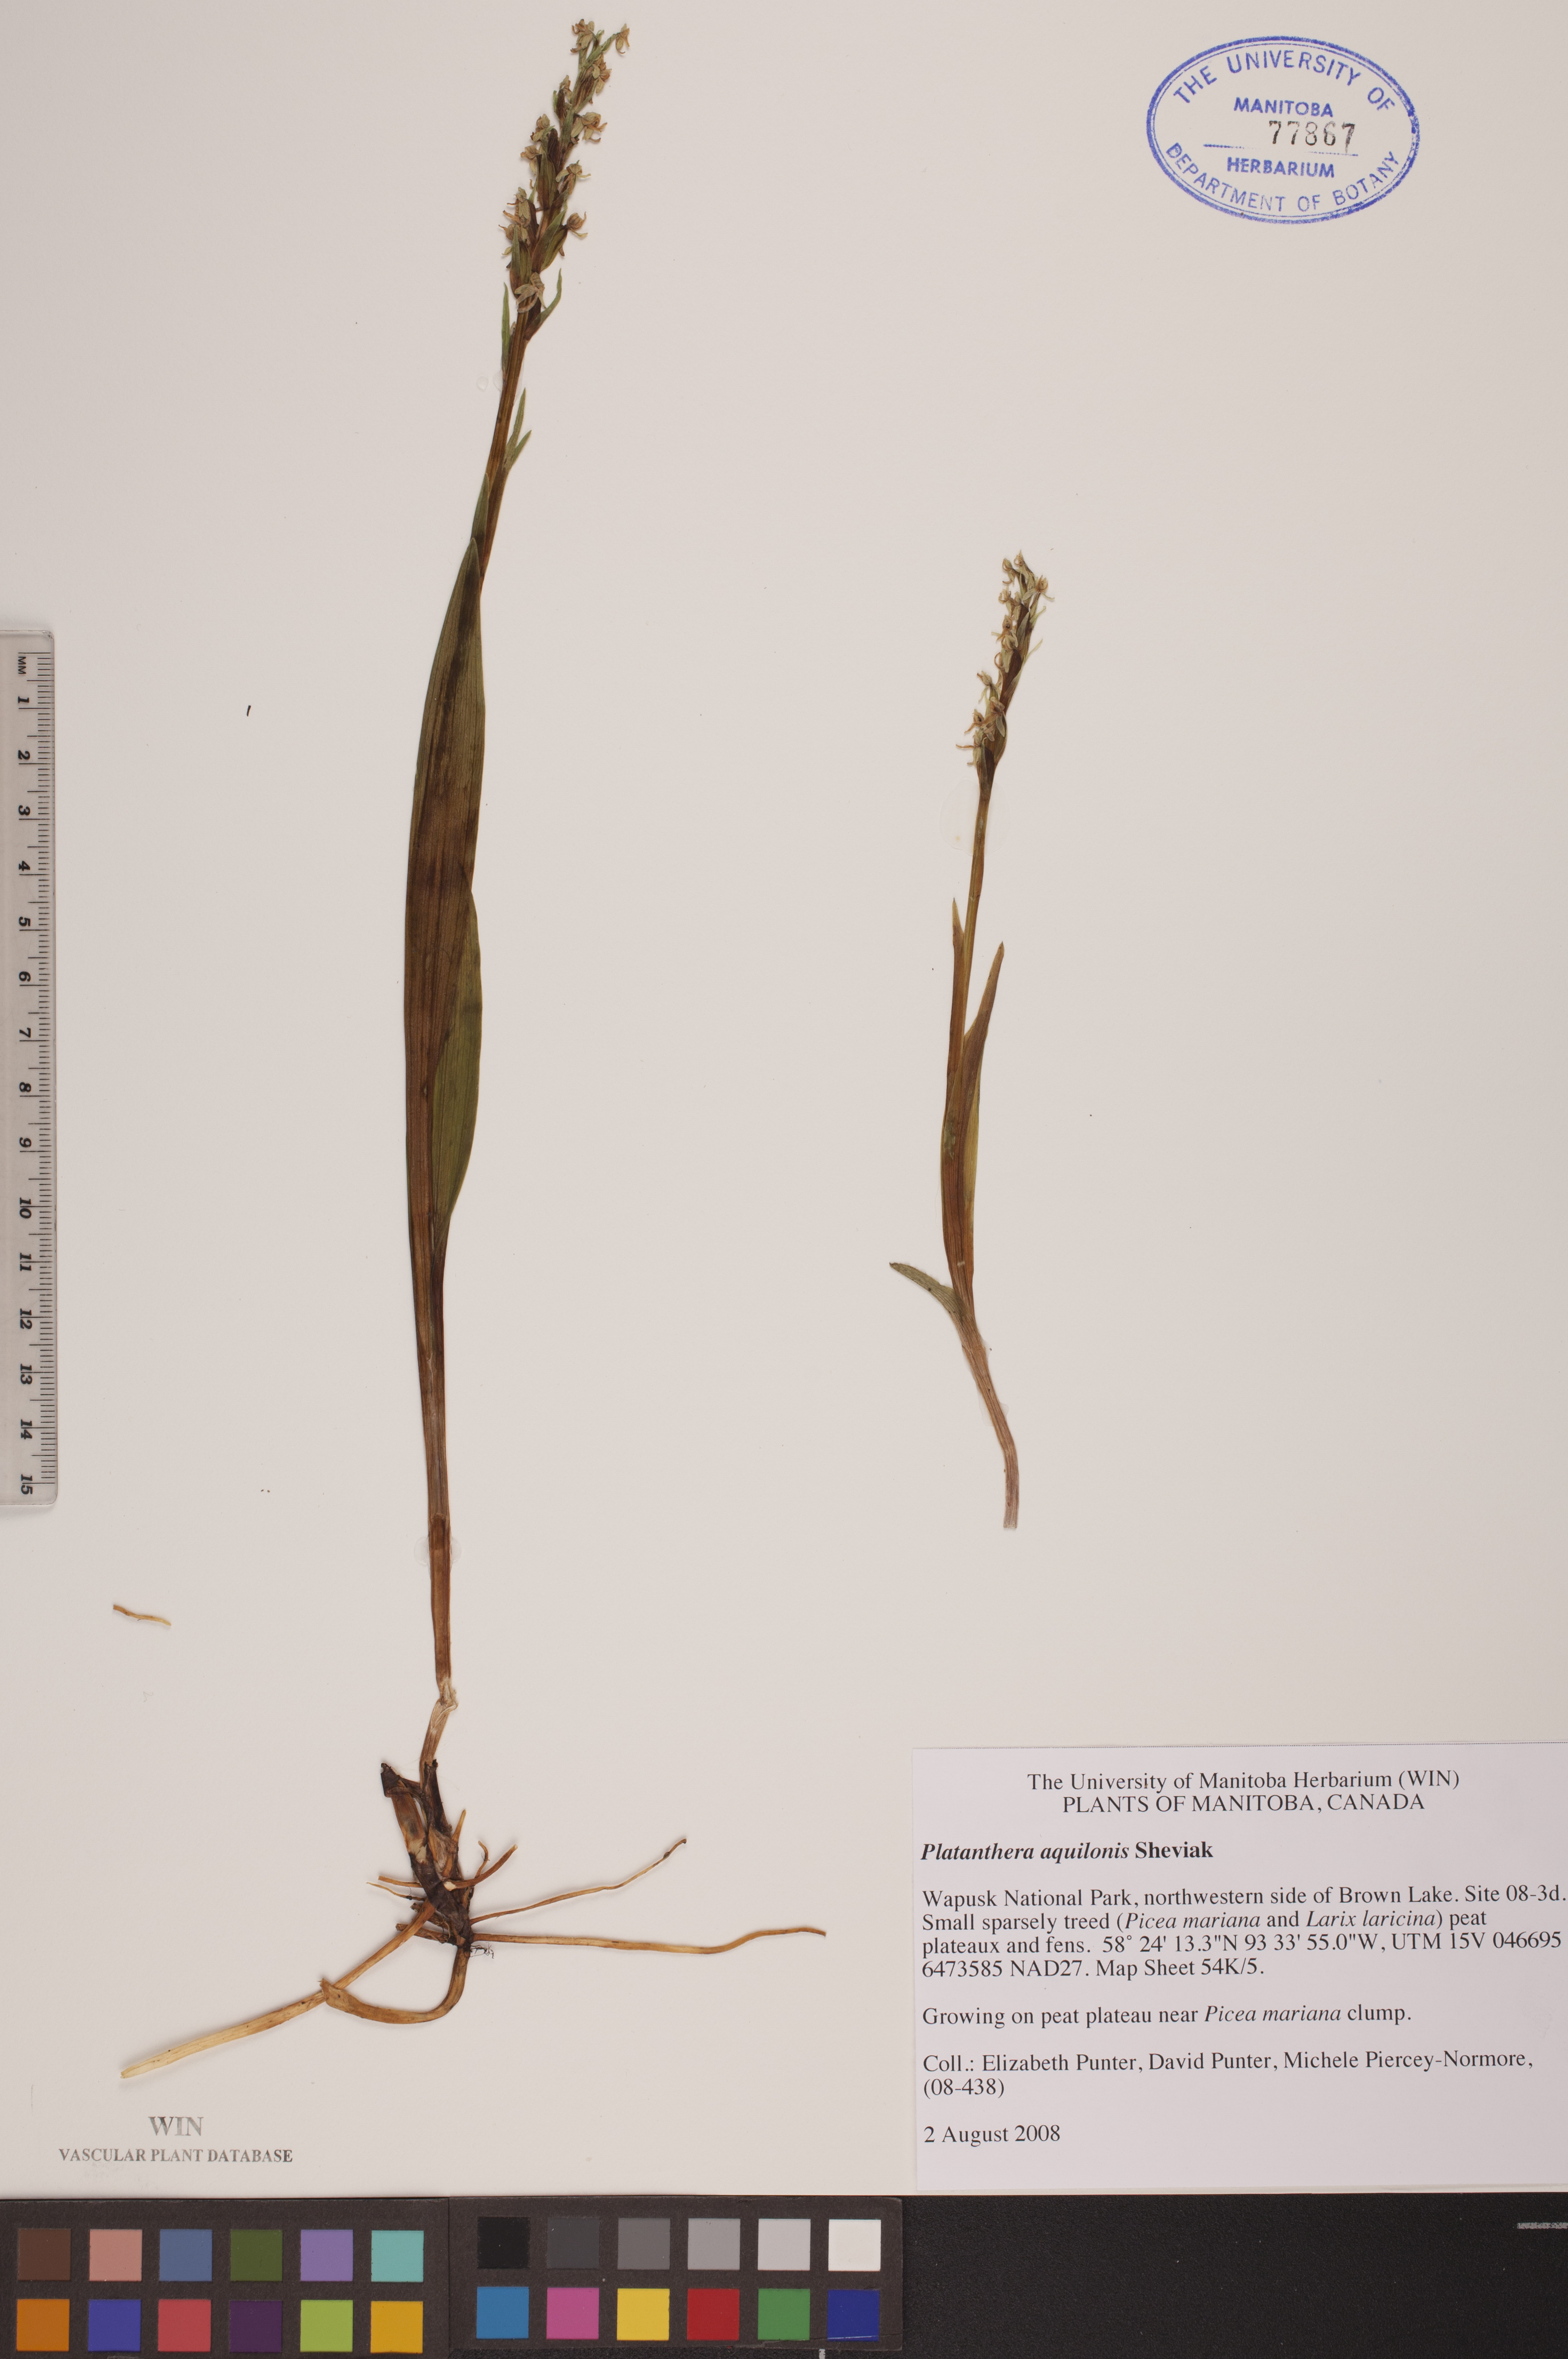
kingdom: Plantae
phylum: Tracheophyta
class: Liliopsida
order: Asparagales
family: Orchidaceae
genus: Platanthera
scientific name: Platanthera aquilonis
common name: Northern green orchid
